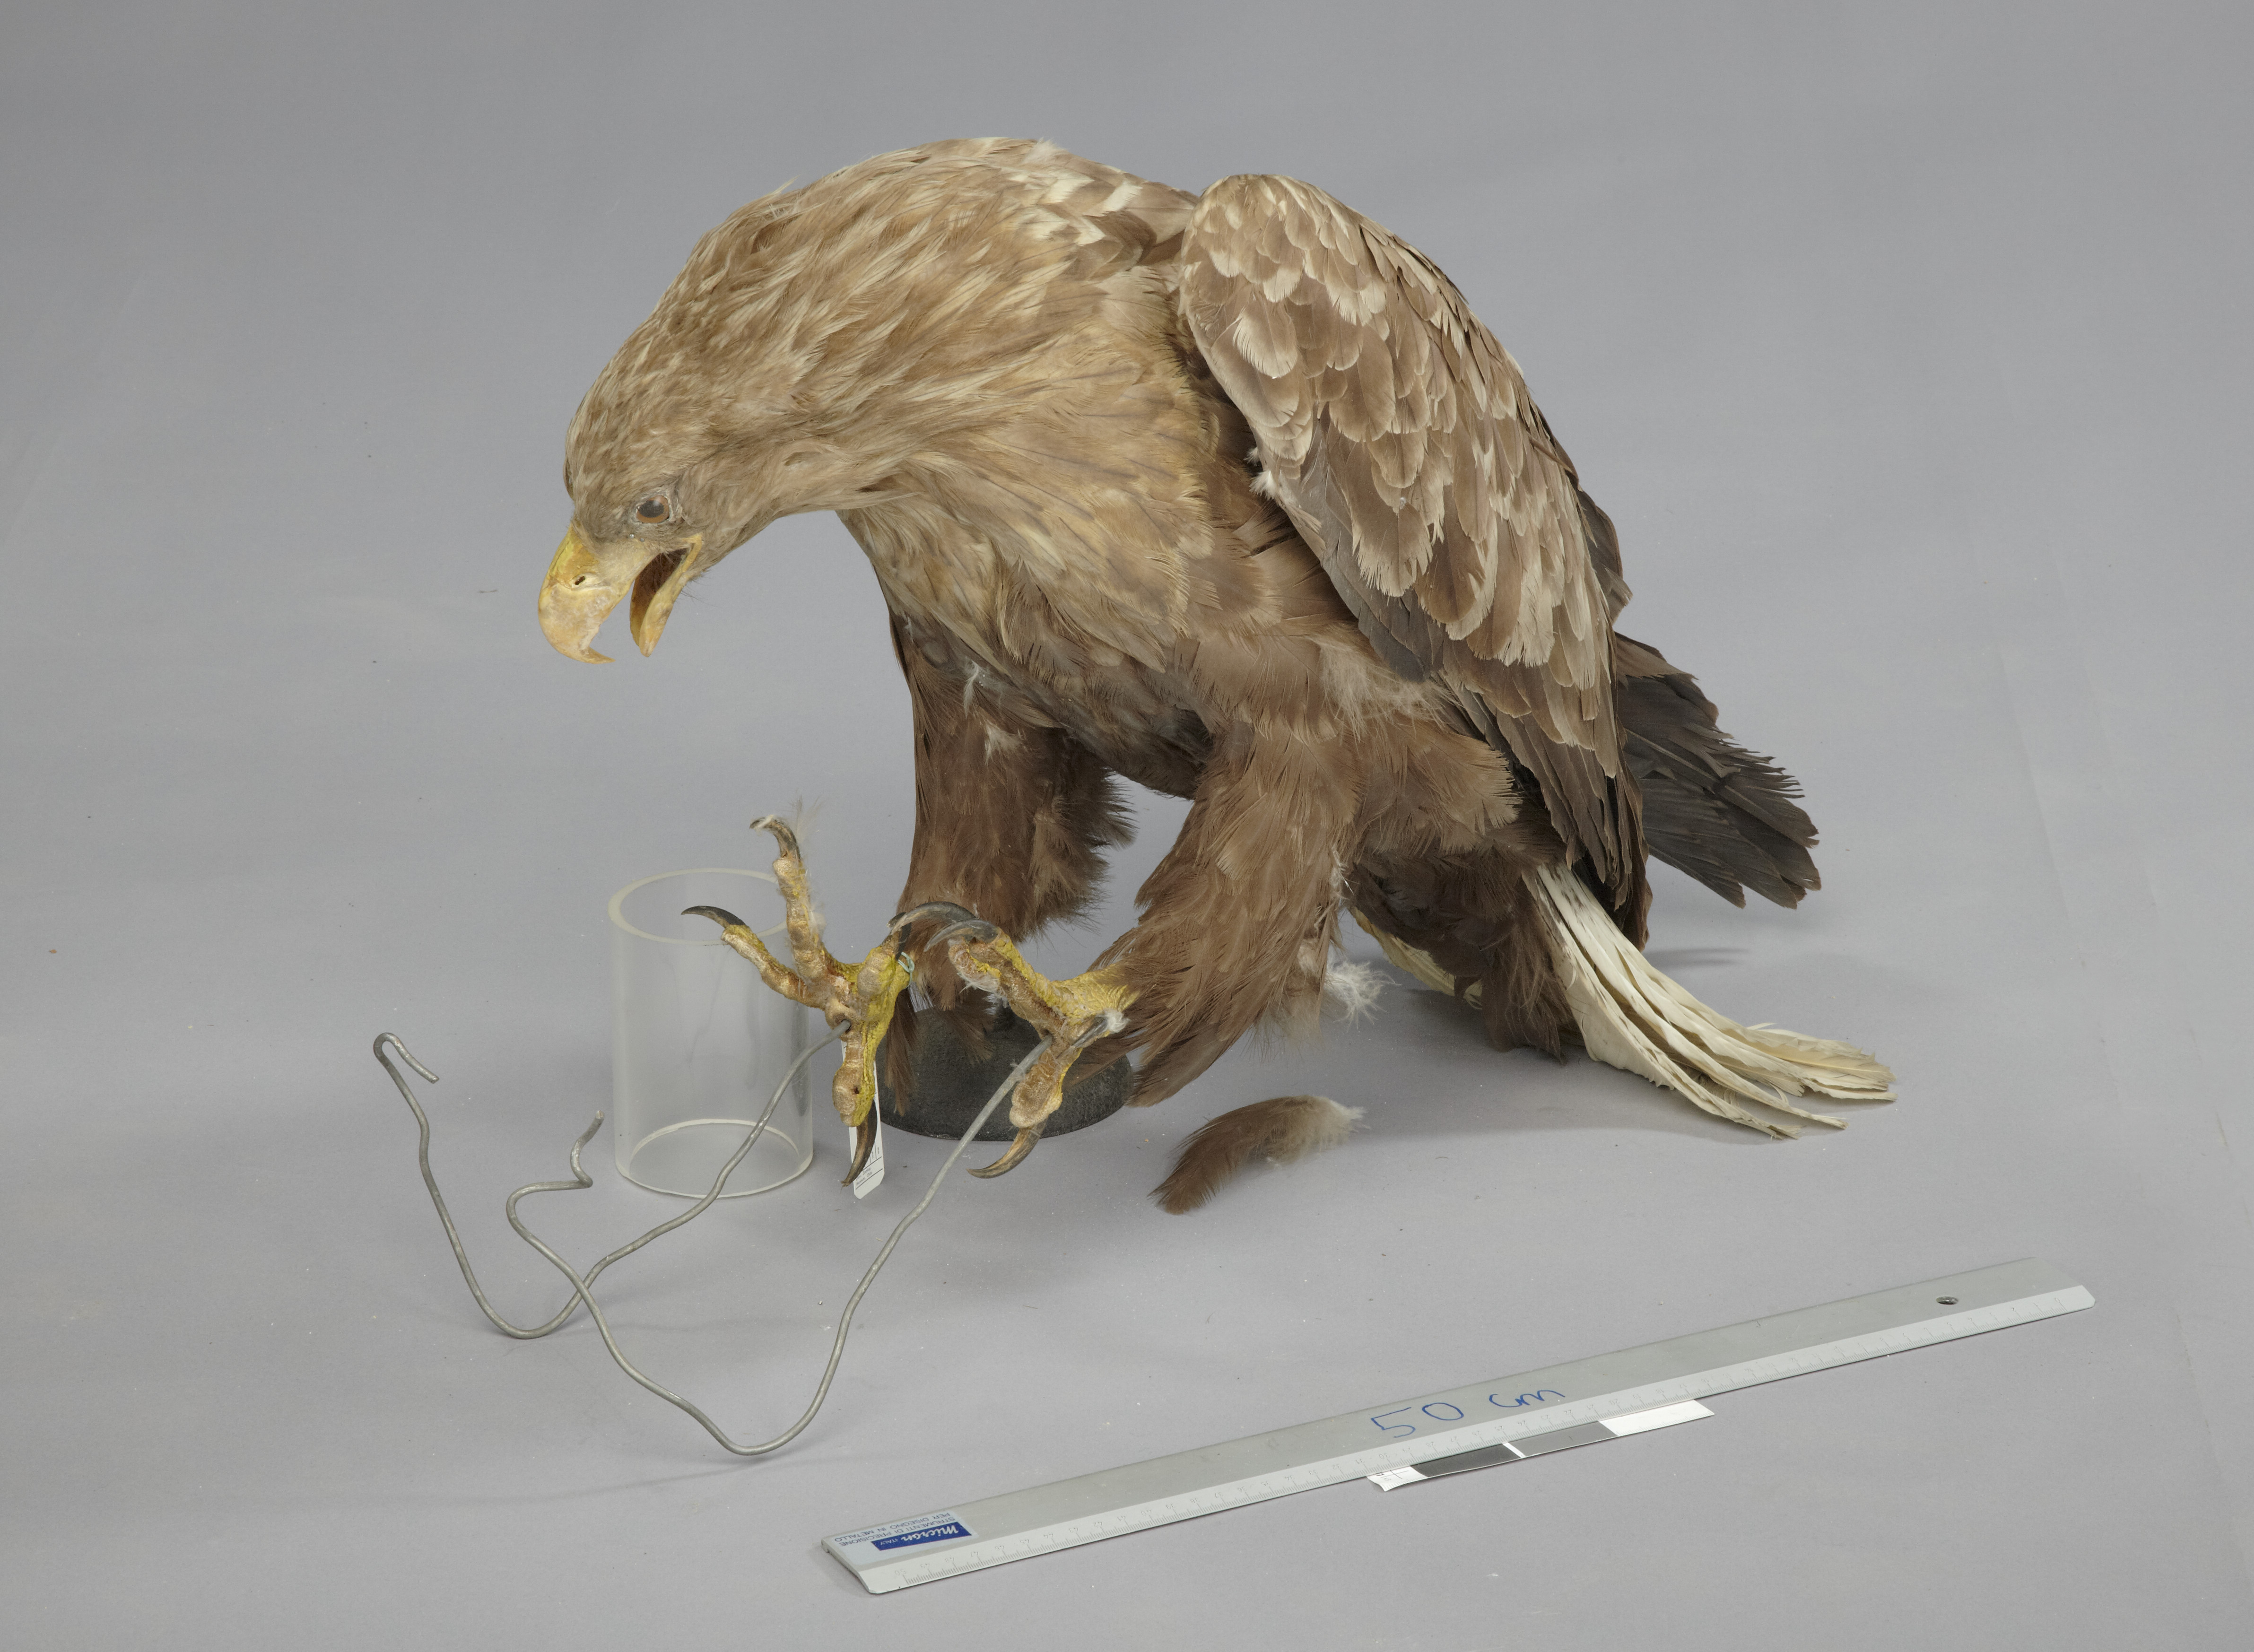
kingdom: Animalia
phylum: Chordata
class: Aves
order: Accipitriformes
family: Accipitridae
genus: Haliaeetus
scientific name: Haliaeetus albicilla
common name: White-tailed eagle
